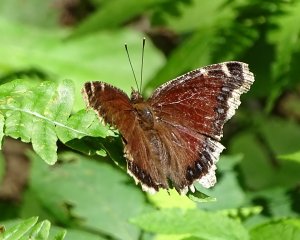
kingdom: Animalia
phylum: Arthropoda
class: Insecta
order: Lepidoptera
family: Nymphalidae
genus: Nymphalis
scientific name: Nymphalis antiopa
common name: Mourning Cloak
